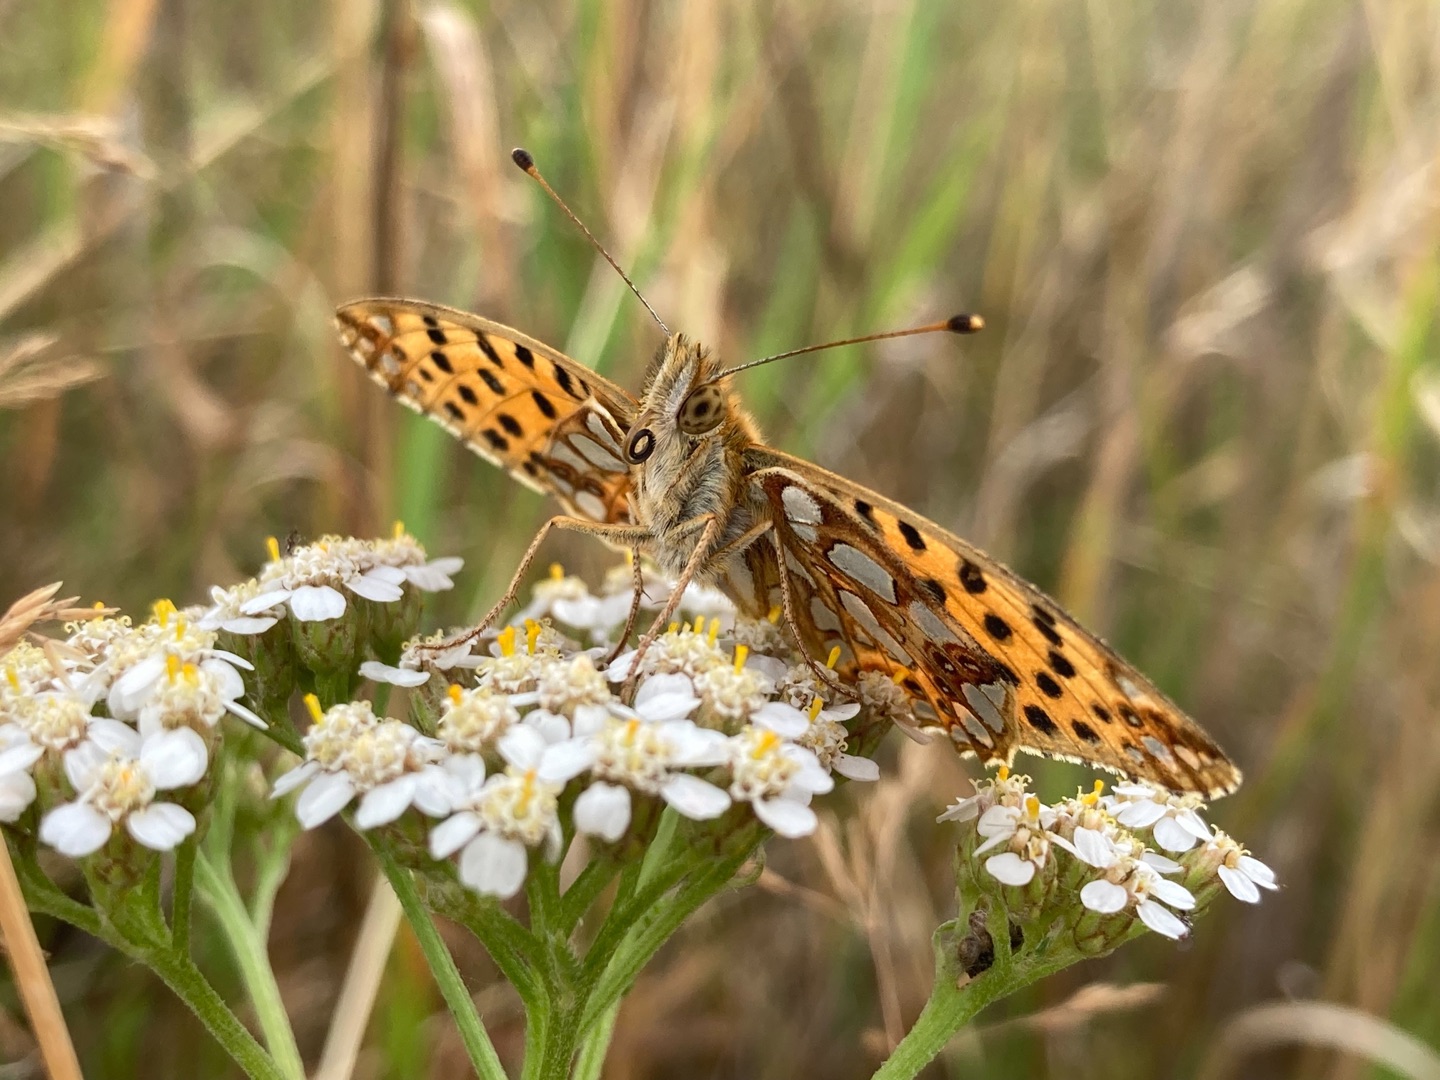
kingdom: Animalia
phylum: Arthropoda
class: Insecta
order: Lepidoptera
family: Nymphalidae
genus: Issoria
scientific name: Issoria lathonia
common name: Storplettet perlemorsommerfugl
